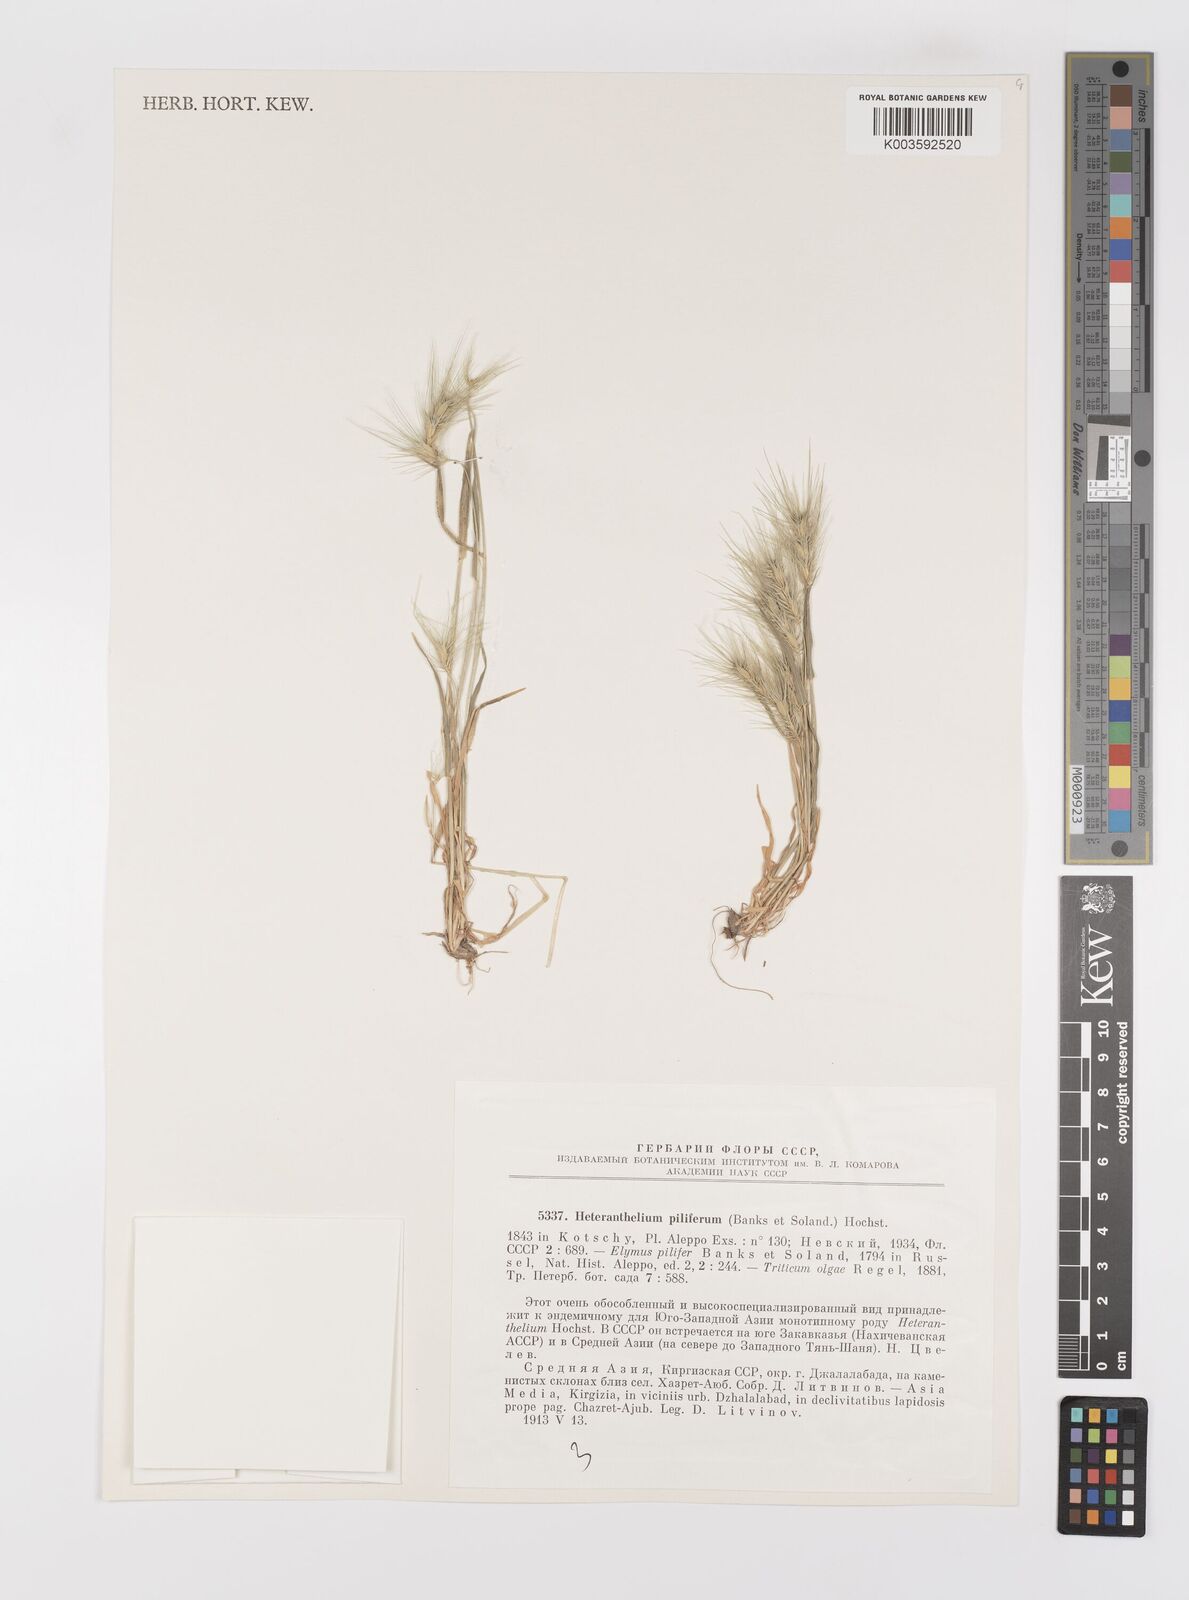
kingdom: Plantae
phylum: Tracheophyta
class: Liliopsida
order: Poales
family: Poaceae
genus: Heteranthelium
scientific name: Heteranthelium piliferum
